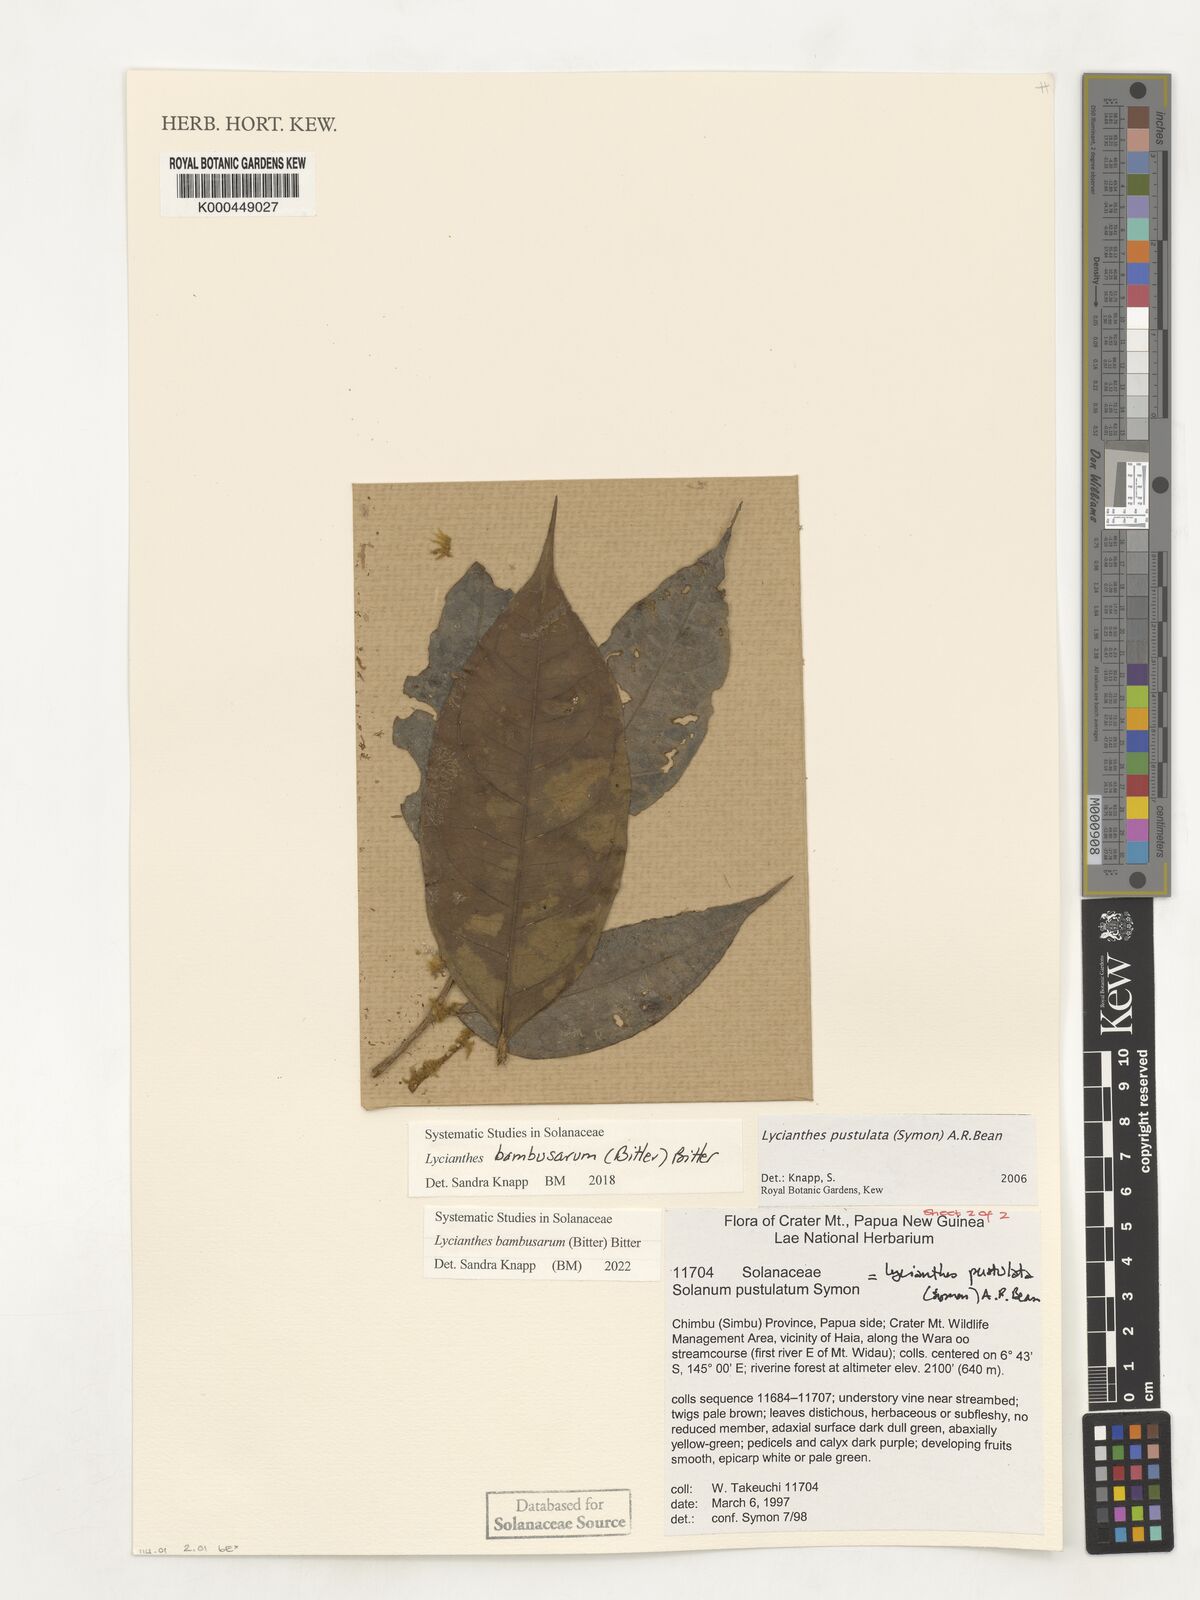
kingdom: Plantae
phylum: Tracheophyta
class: Magnoliopsida
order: Solanales
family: Solanaceae
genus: Lycianthes
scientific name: Lycianthes bambusarum
